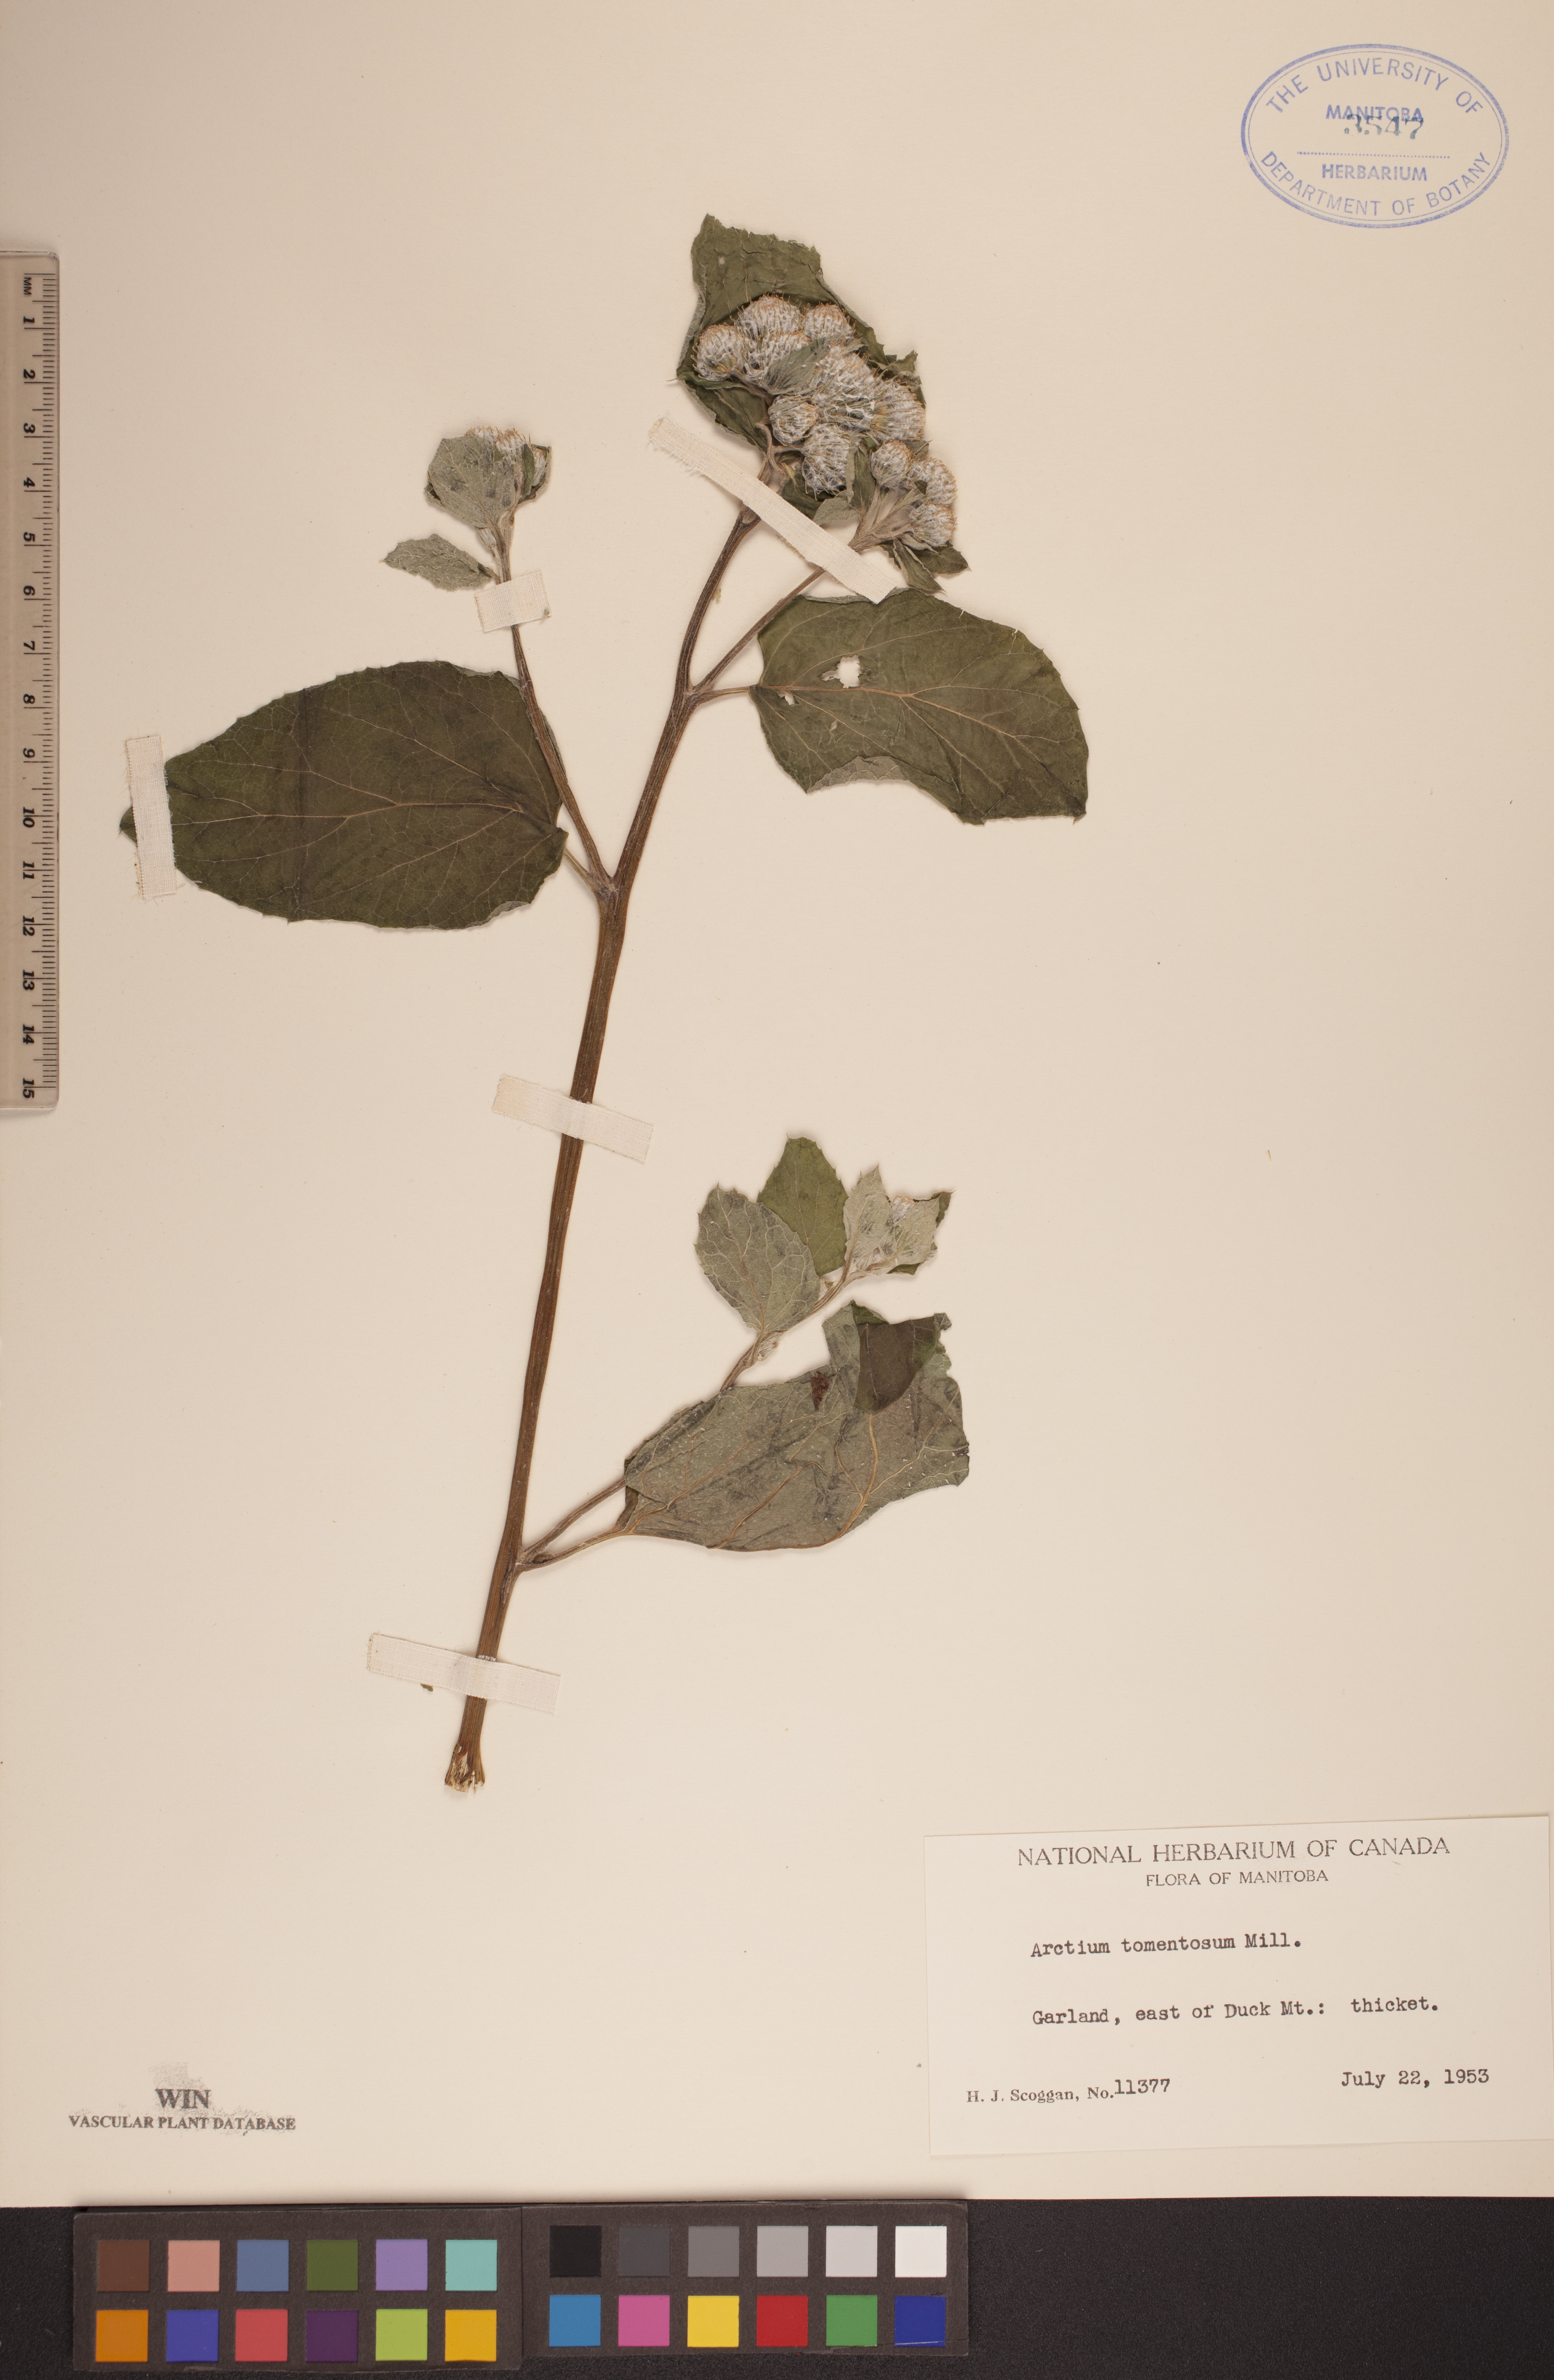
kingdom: Plantae
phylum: Tracheophyta
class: Magnoliopsida
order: Asterales
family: Asteraceae
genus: Arctium
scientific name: Arctium tomentosum
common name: Woolly burdock
